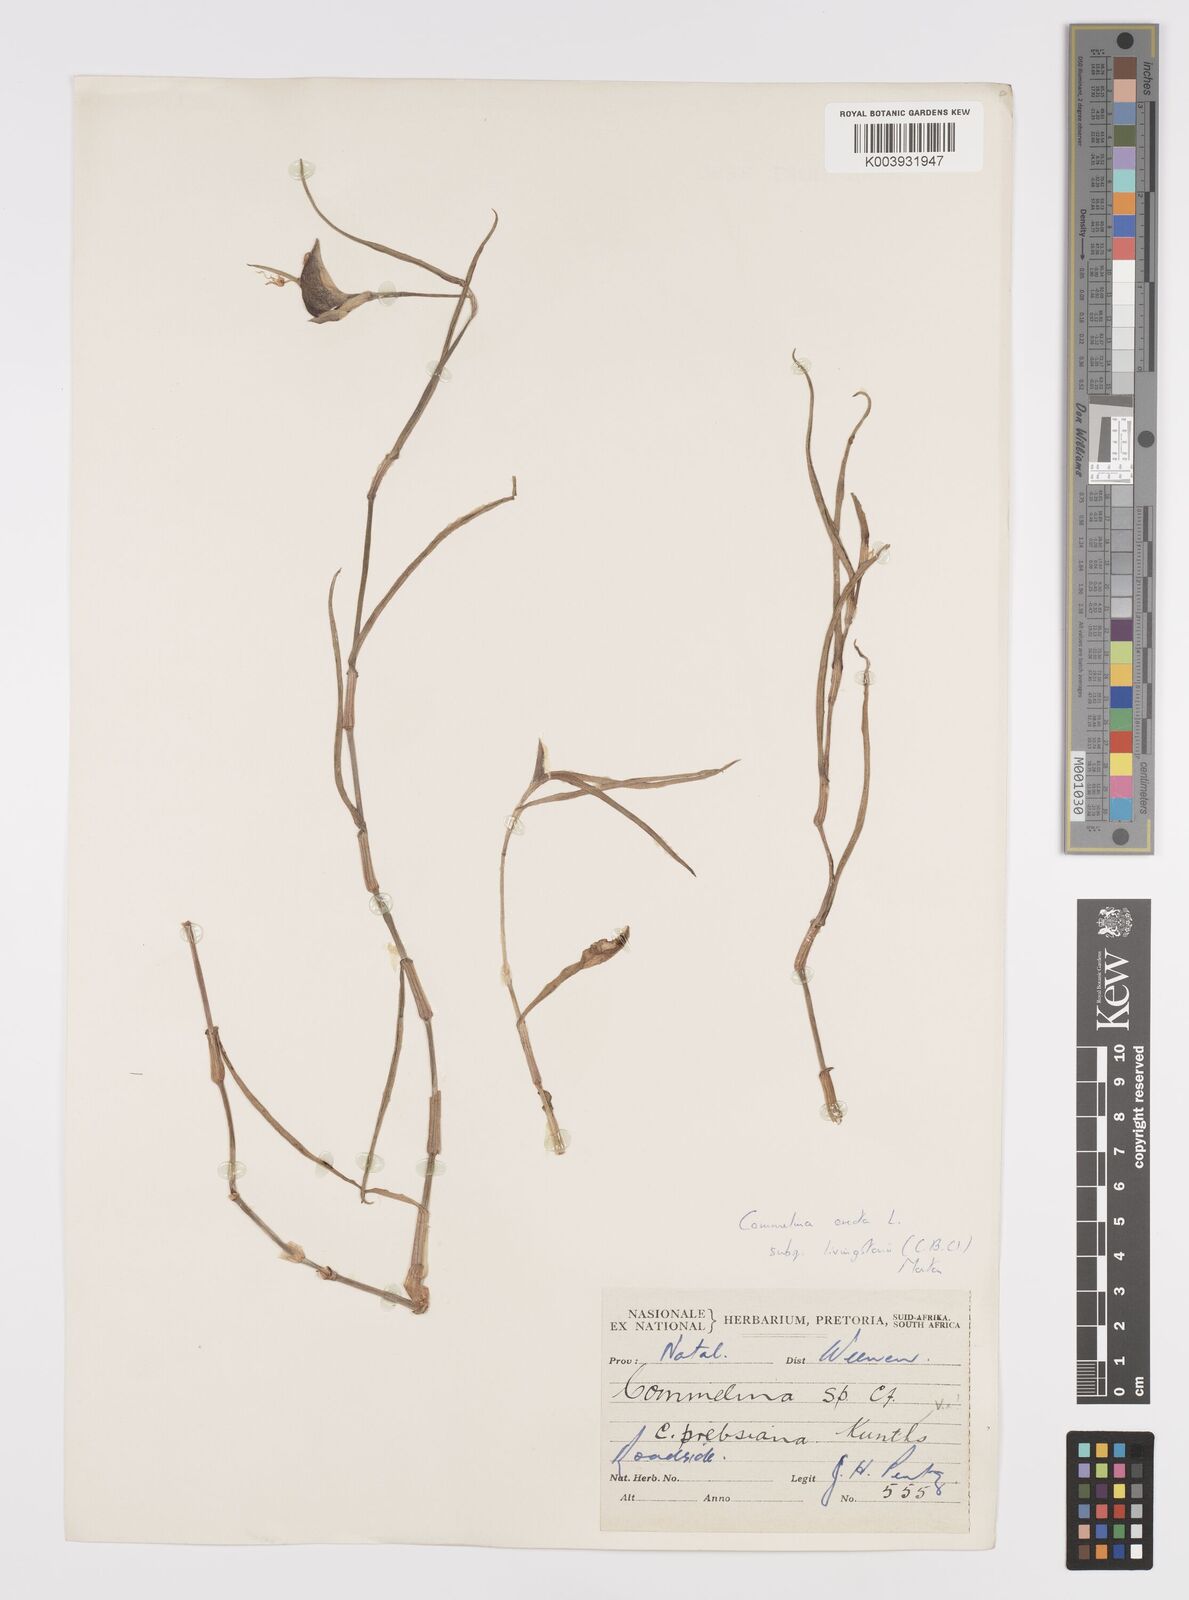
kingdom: Plantae
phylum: Tracheophyta
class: Liliopsida
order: Commelinales
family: Commelinaceae
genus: Commelina
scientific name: Commelina erecta
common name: Blousel blommetjie
